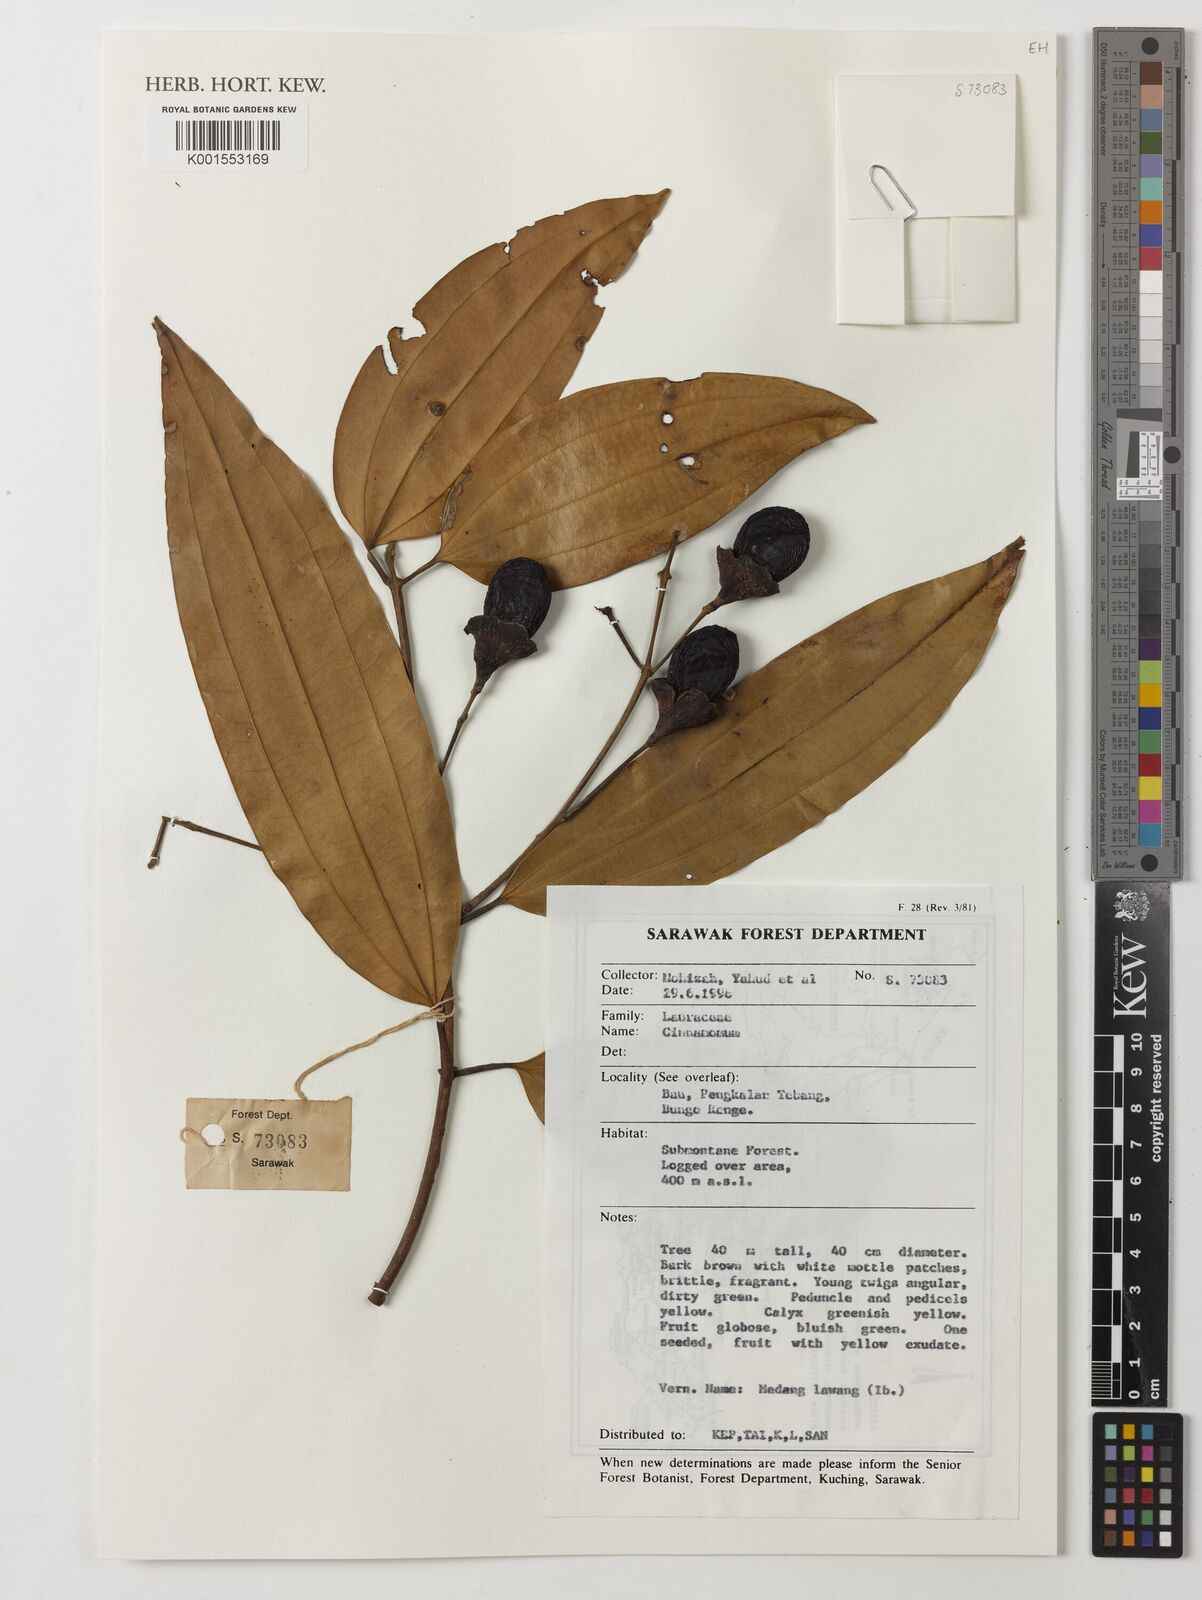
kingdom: Plantae
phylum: Tracheophyta
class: Magnoliopsida
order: Laurales
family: Lauraceae
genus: Cinnamomum
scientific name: Cinnamomum
